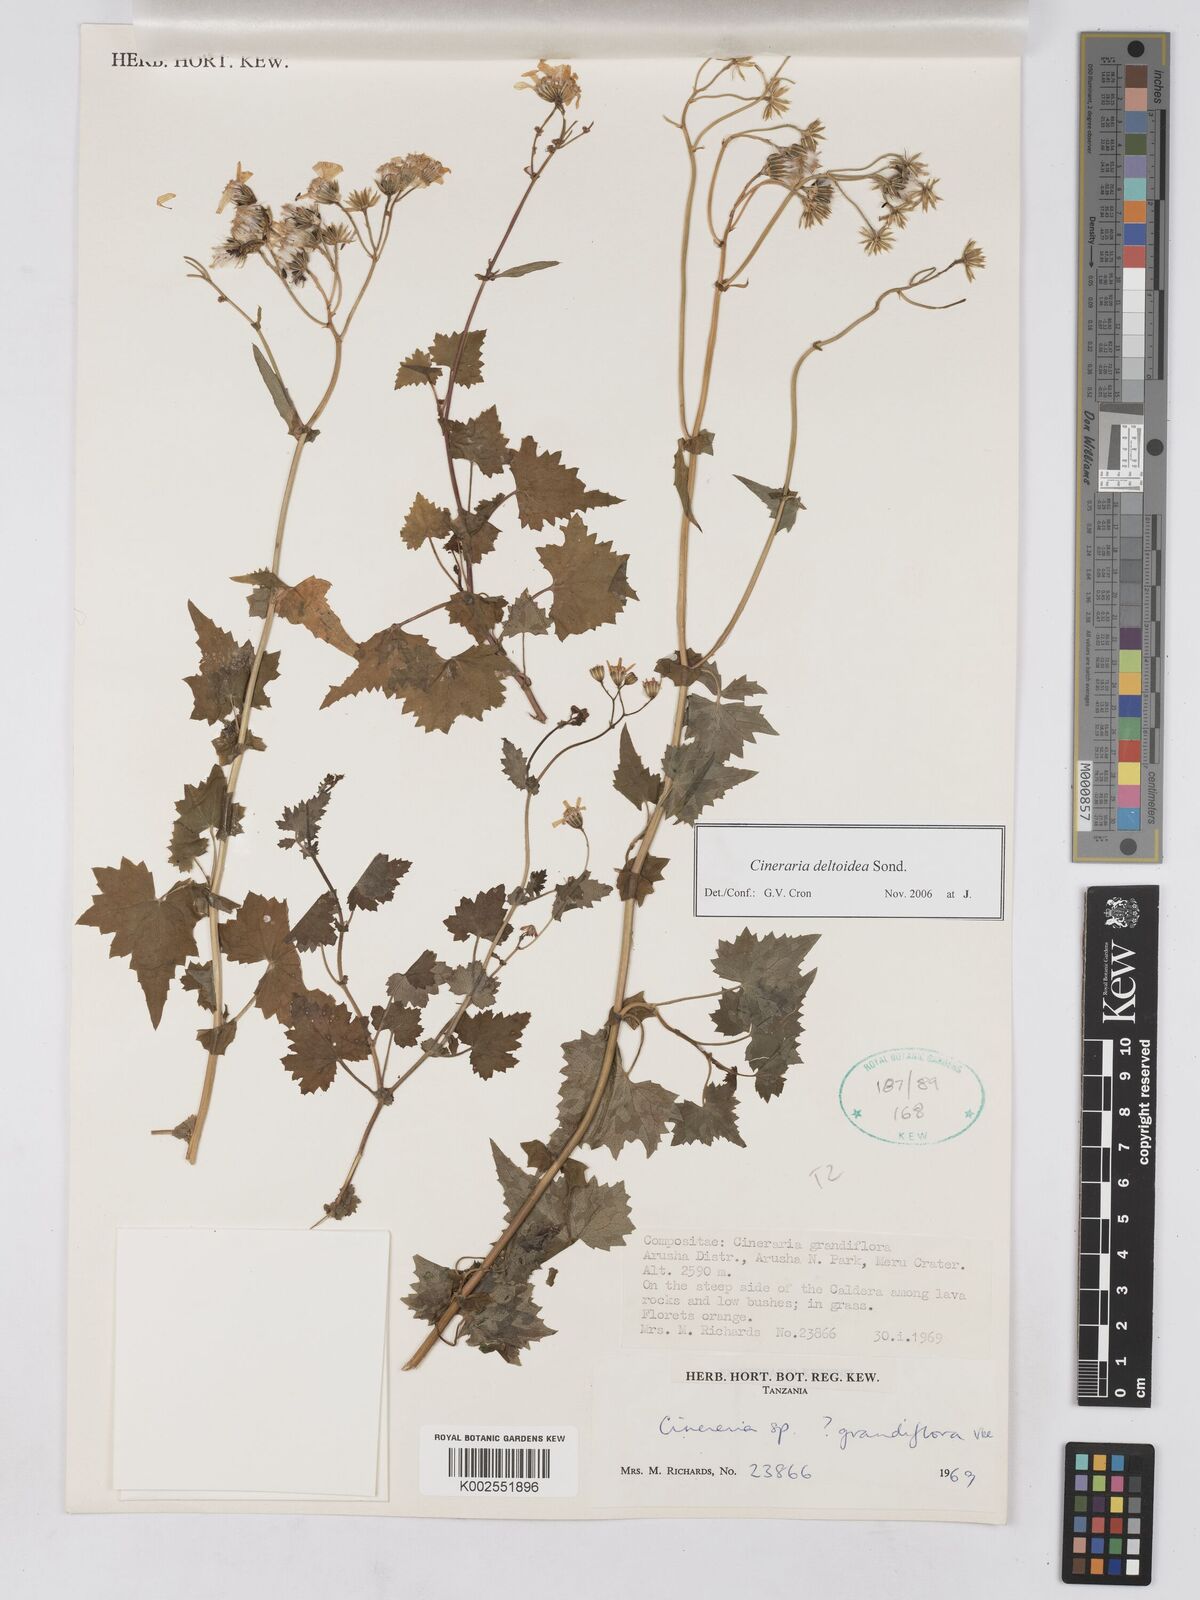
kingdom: Plantae
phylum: Tracheophyta
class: Magnoliopsida
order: Asterales
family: Asteraceae
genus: Cineraria
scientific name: Cineraria deltoidea
